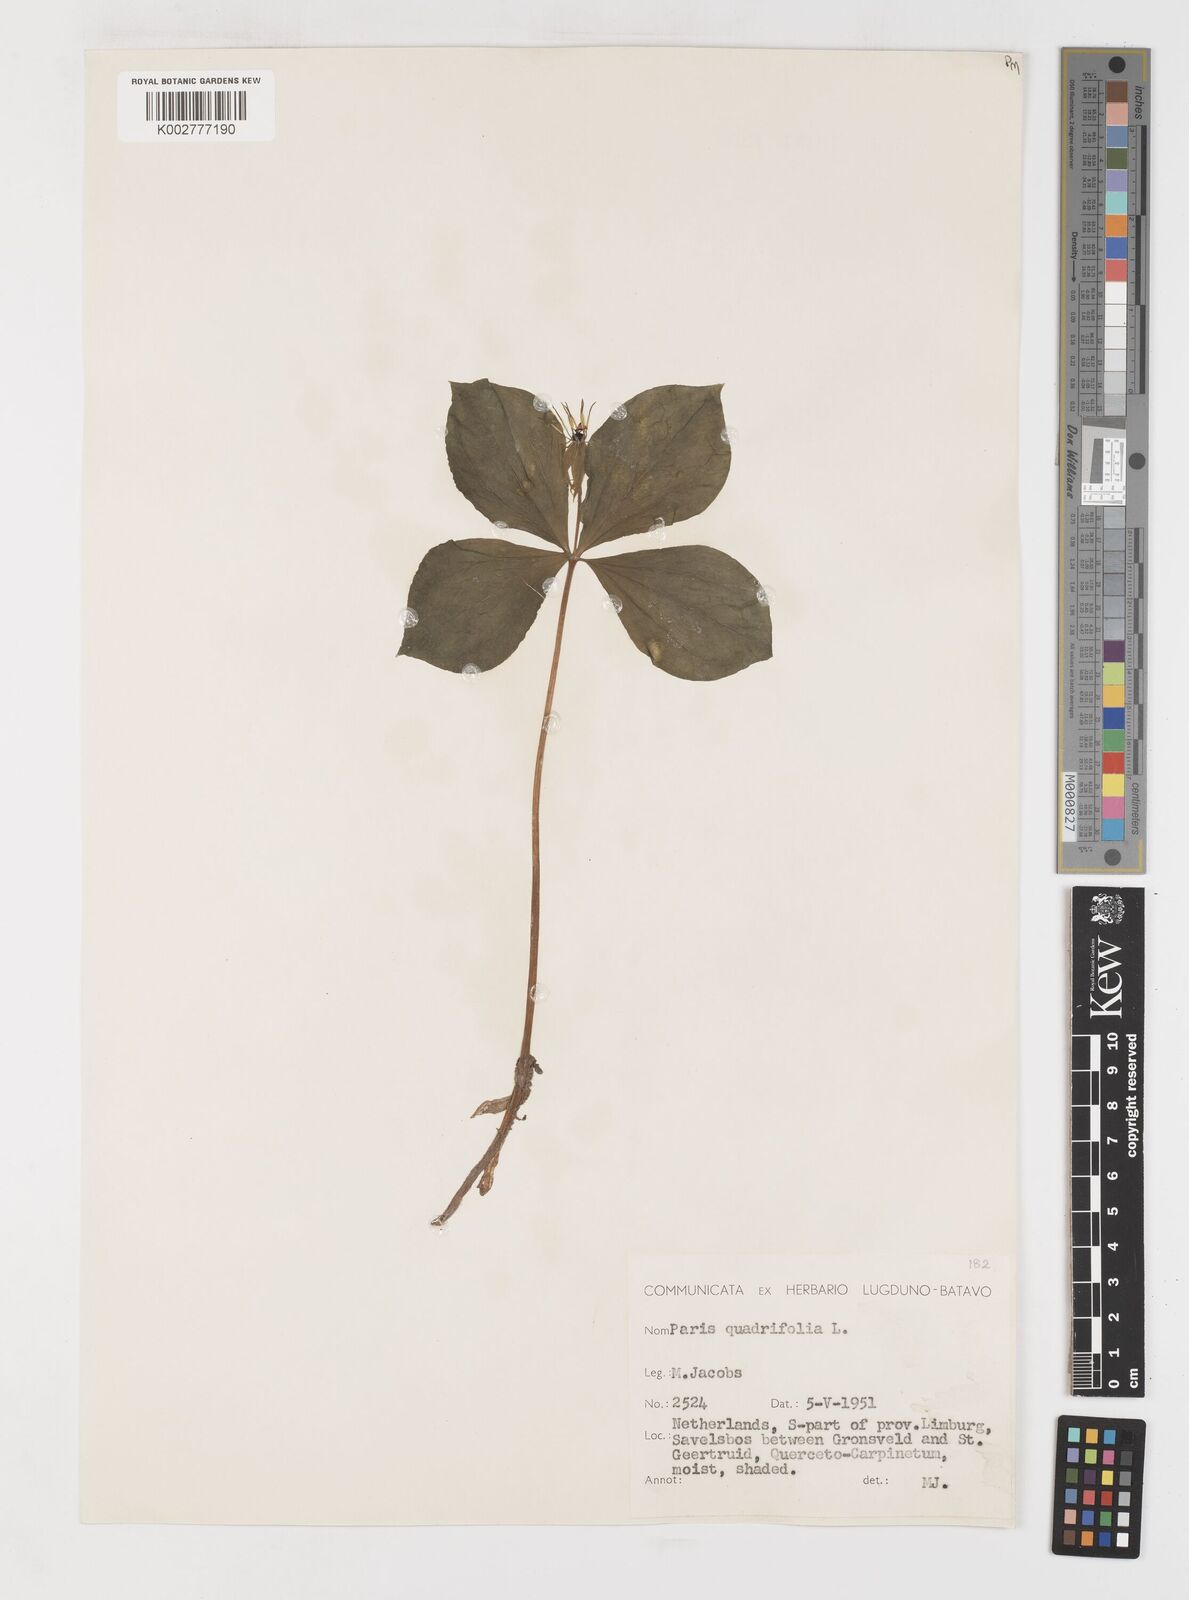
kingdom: Plantae
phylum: Tracheophyta
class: Liliopsida
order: Liliales
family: Melanthiaceae
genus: Paris
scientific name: Paris quadrifolia
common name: Herb-paris
